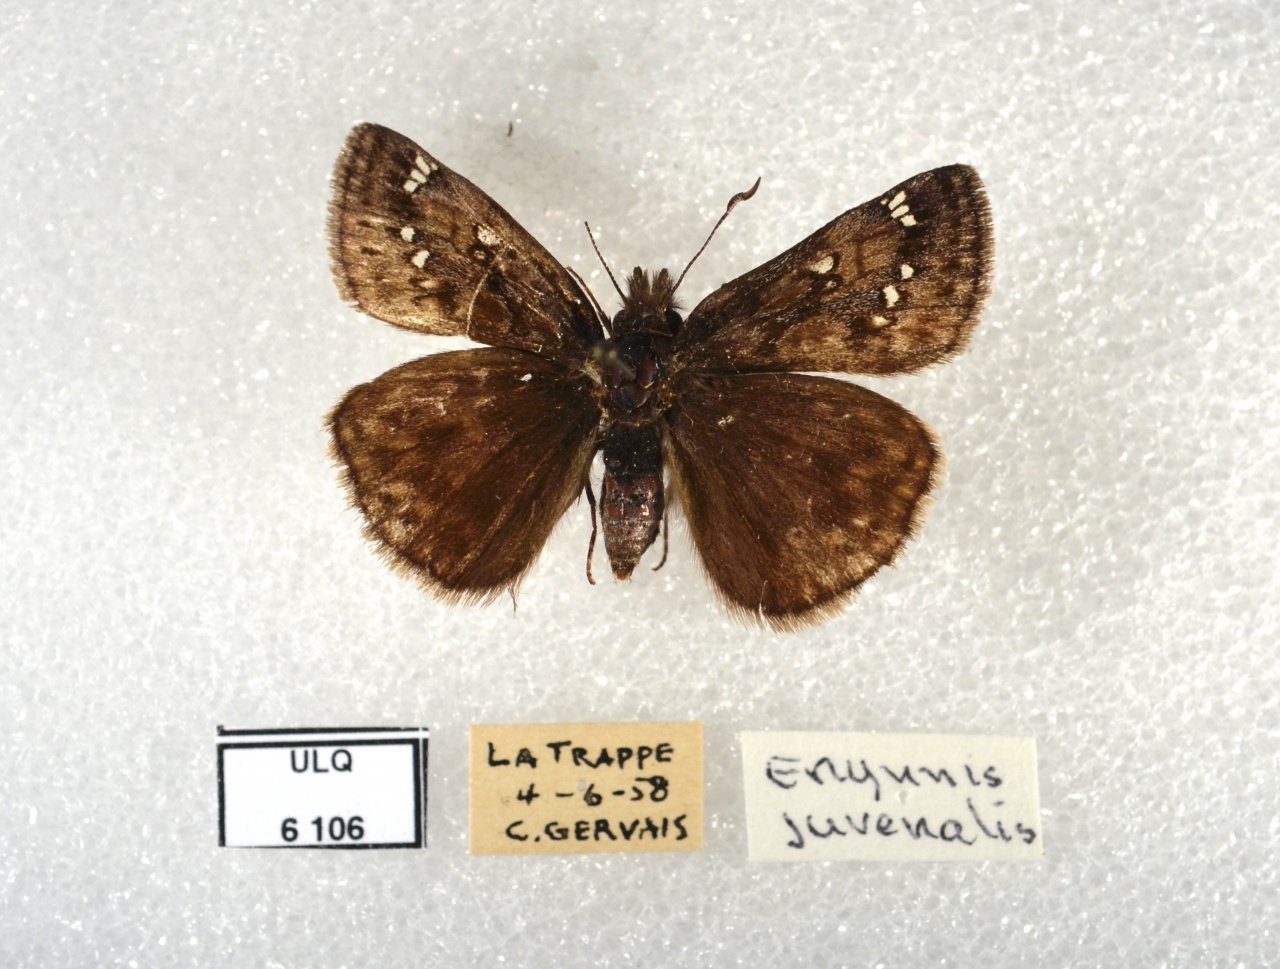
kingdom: Animalia
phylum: Arthropoda
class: Insecta
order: Lepidoptera
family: Hesperiidae
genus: Gesta
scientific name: Gesta
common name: Juvenal's Duskywing
